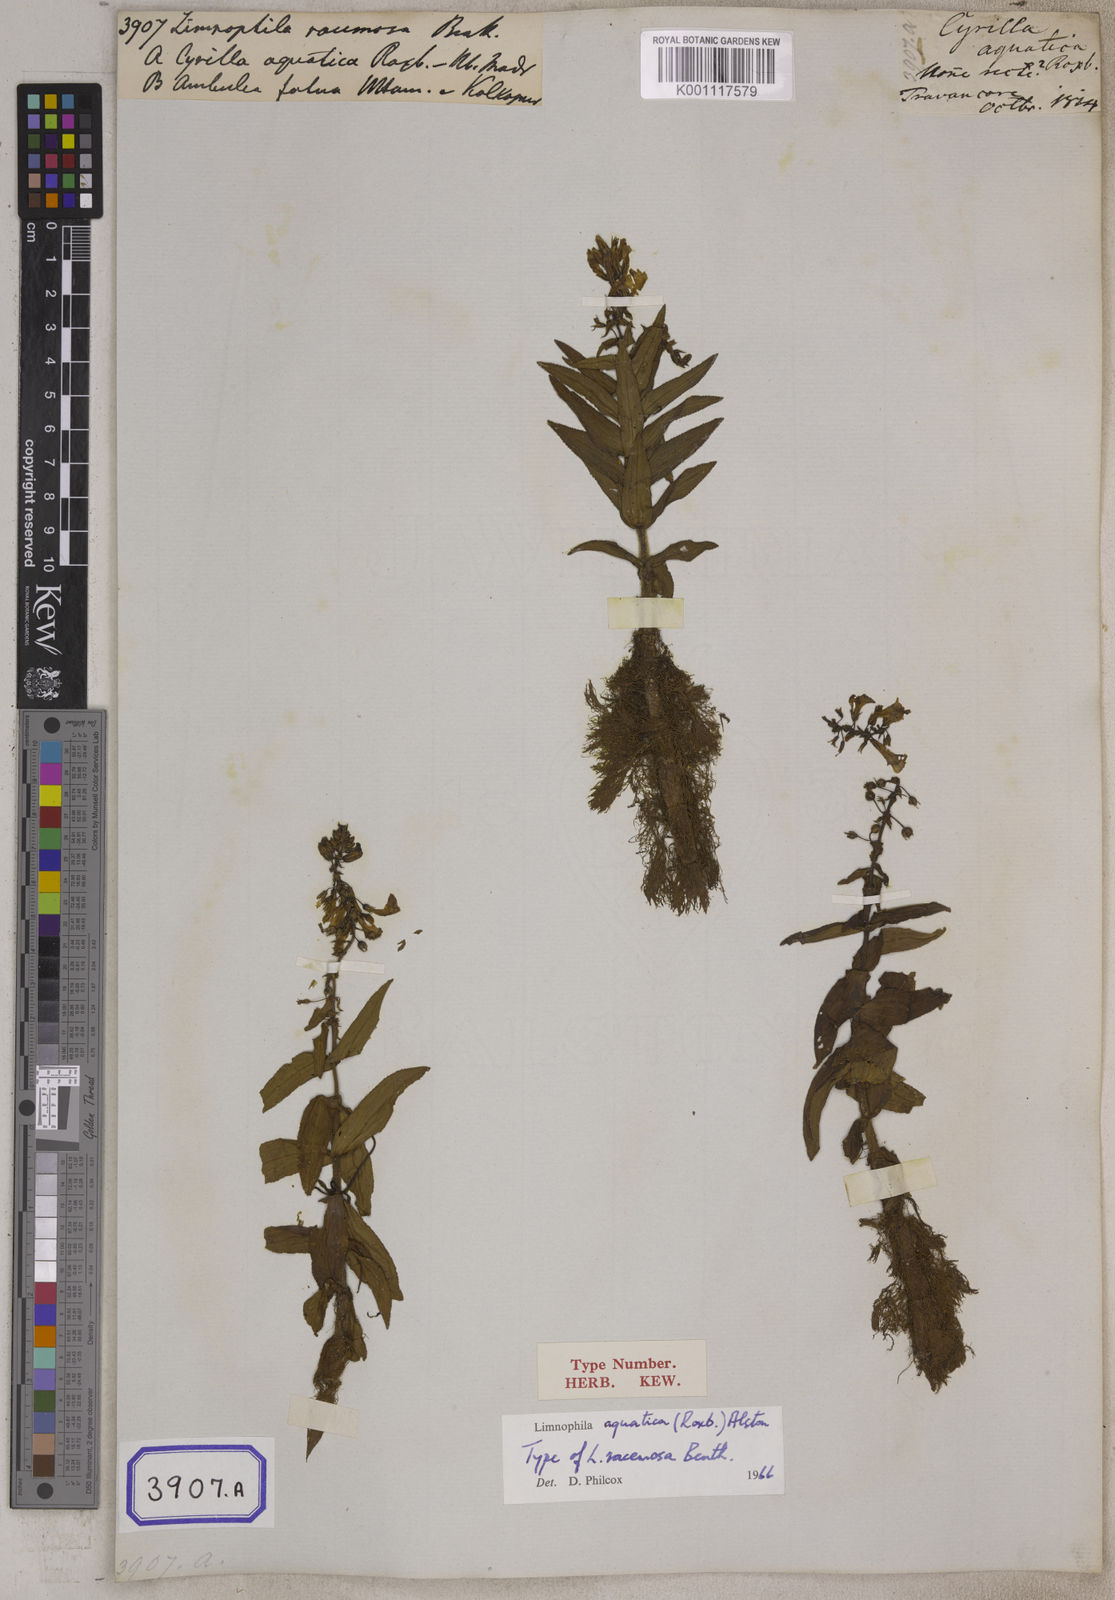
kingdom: Plantae
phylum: Tracheophyta
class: Magnoliopsida
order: Lamiales
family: Plantaginaceae
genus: Limnophila
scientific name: Limnophila aquatica
